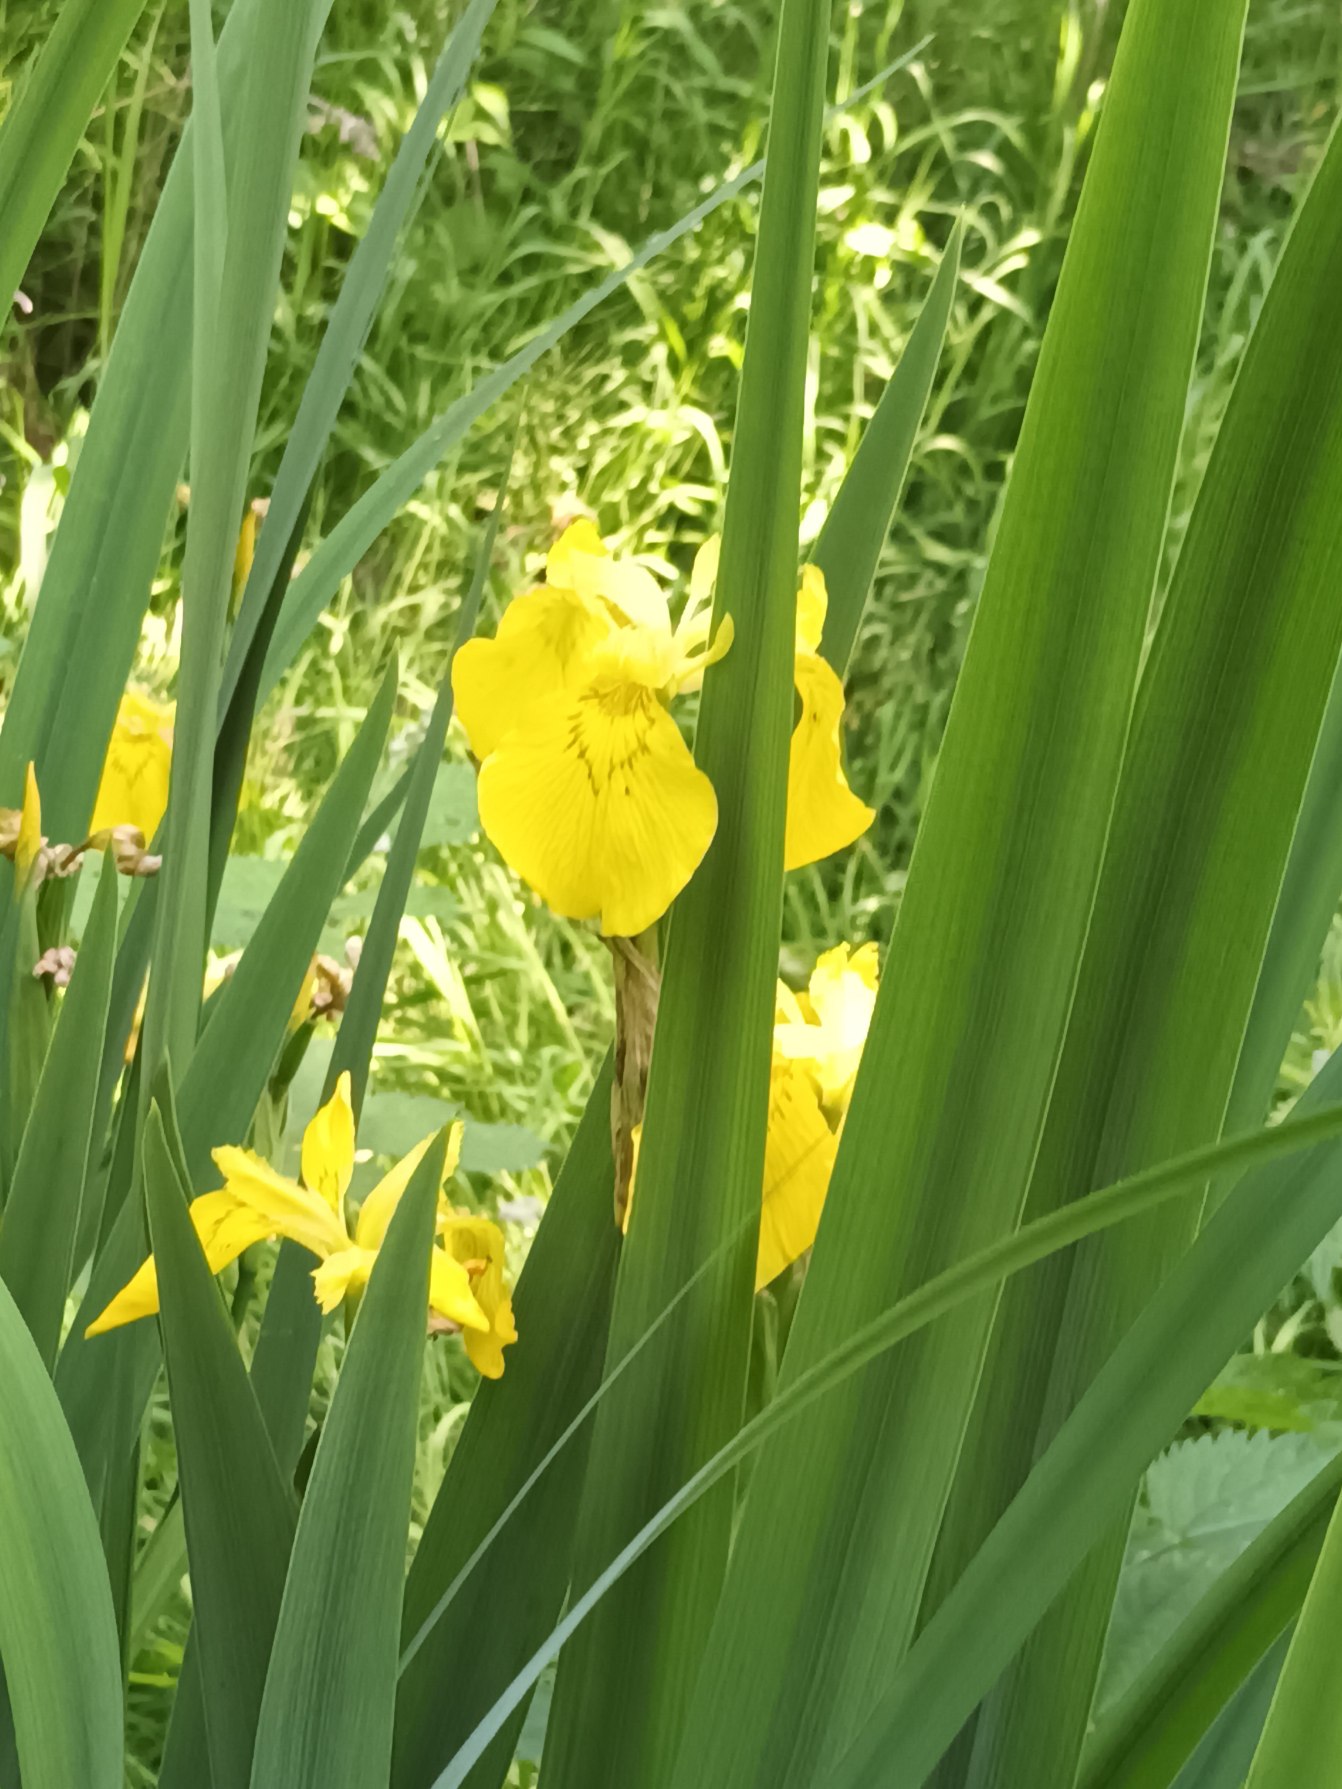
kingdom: Plantae
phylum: Tracheophyta
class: Liliopsida
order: Asparagales
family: Iridaceae
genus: Iris
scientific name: Iris pseudacorus
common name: Gul iris
